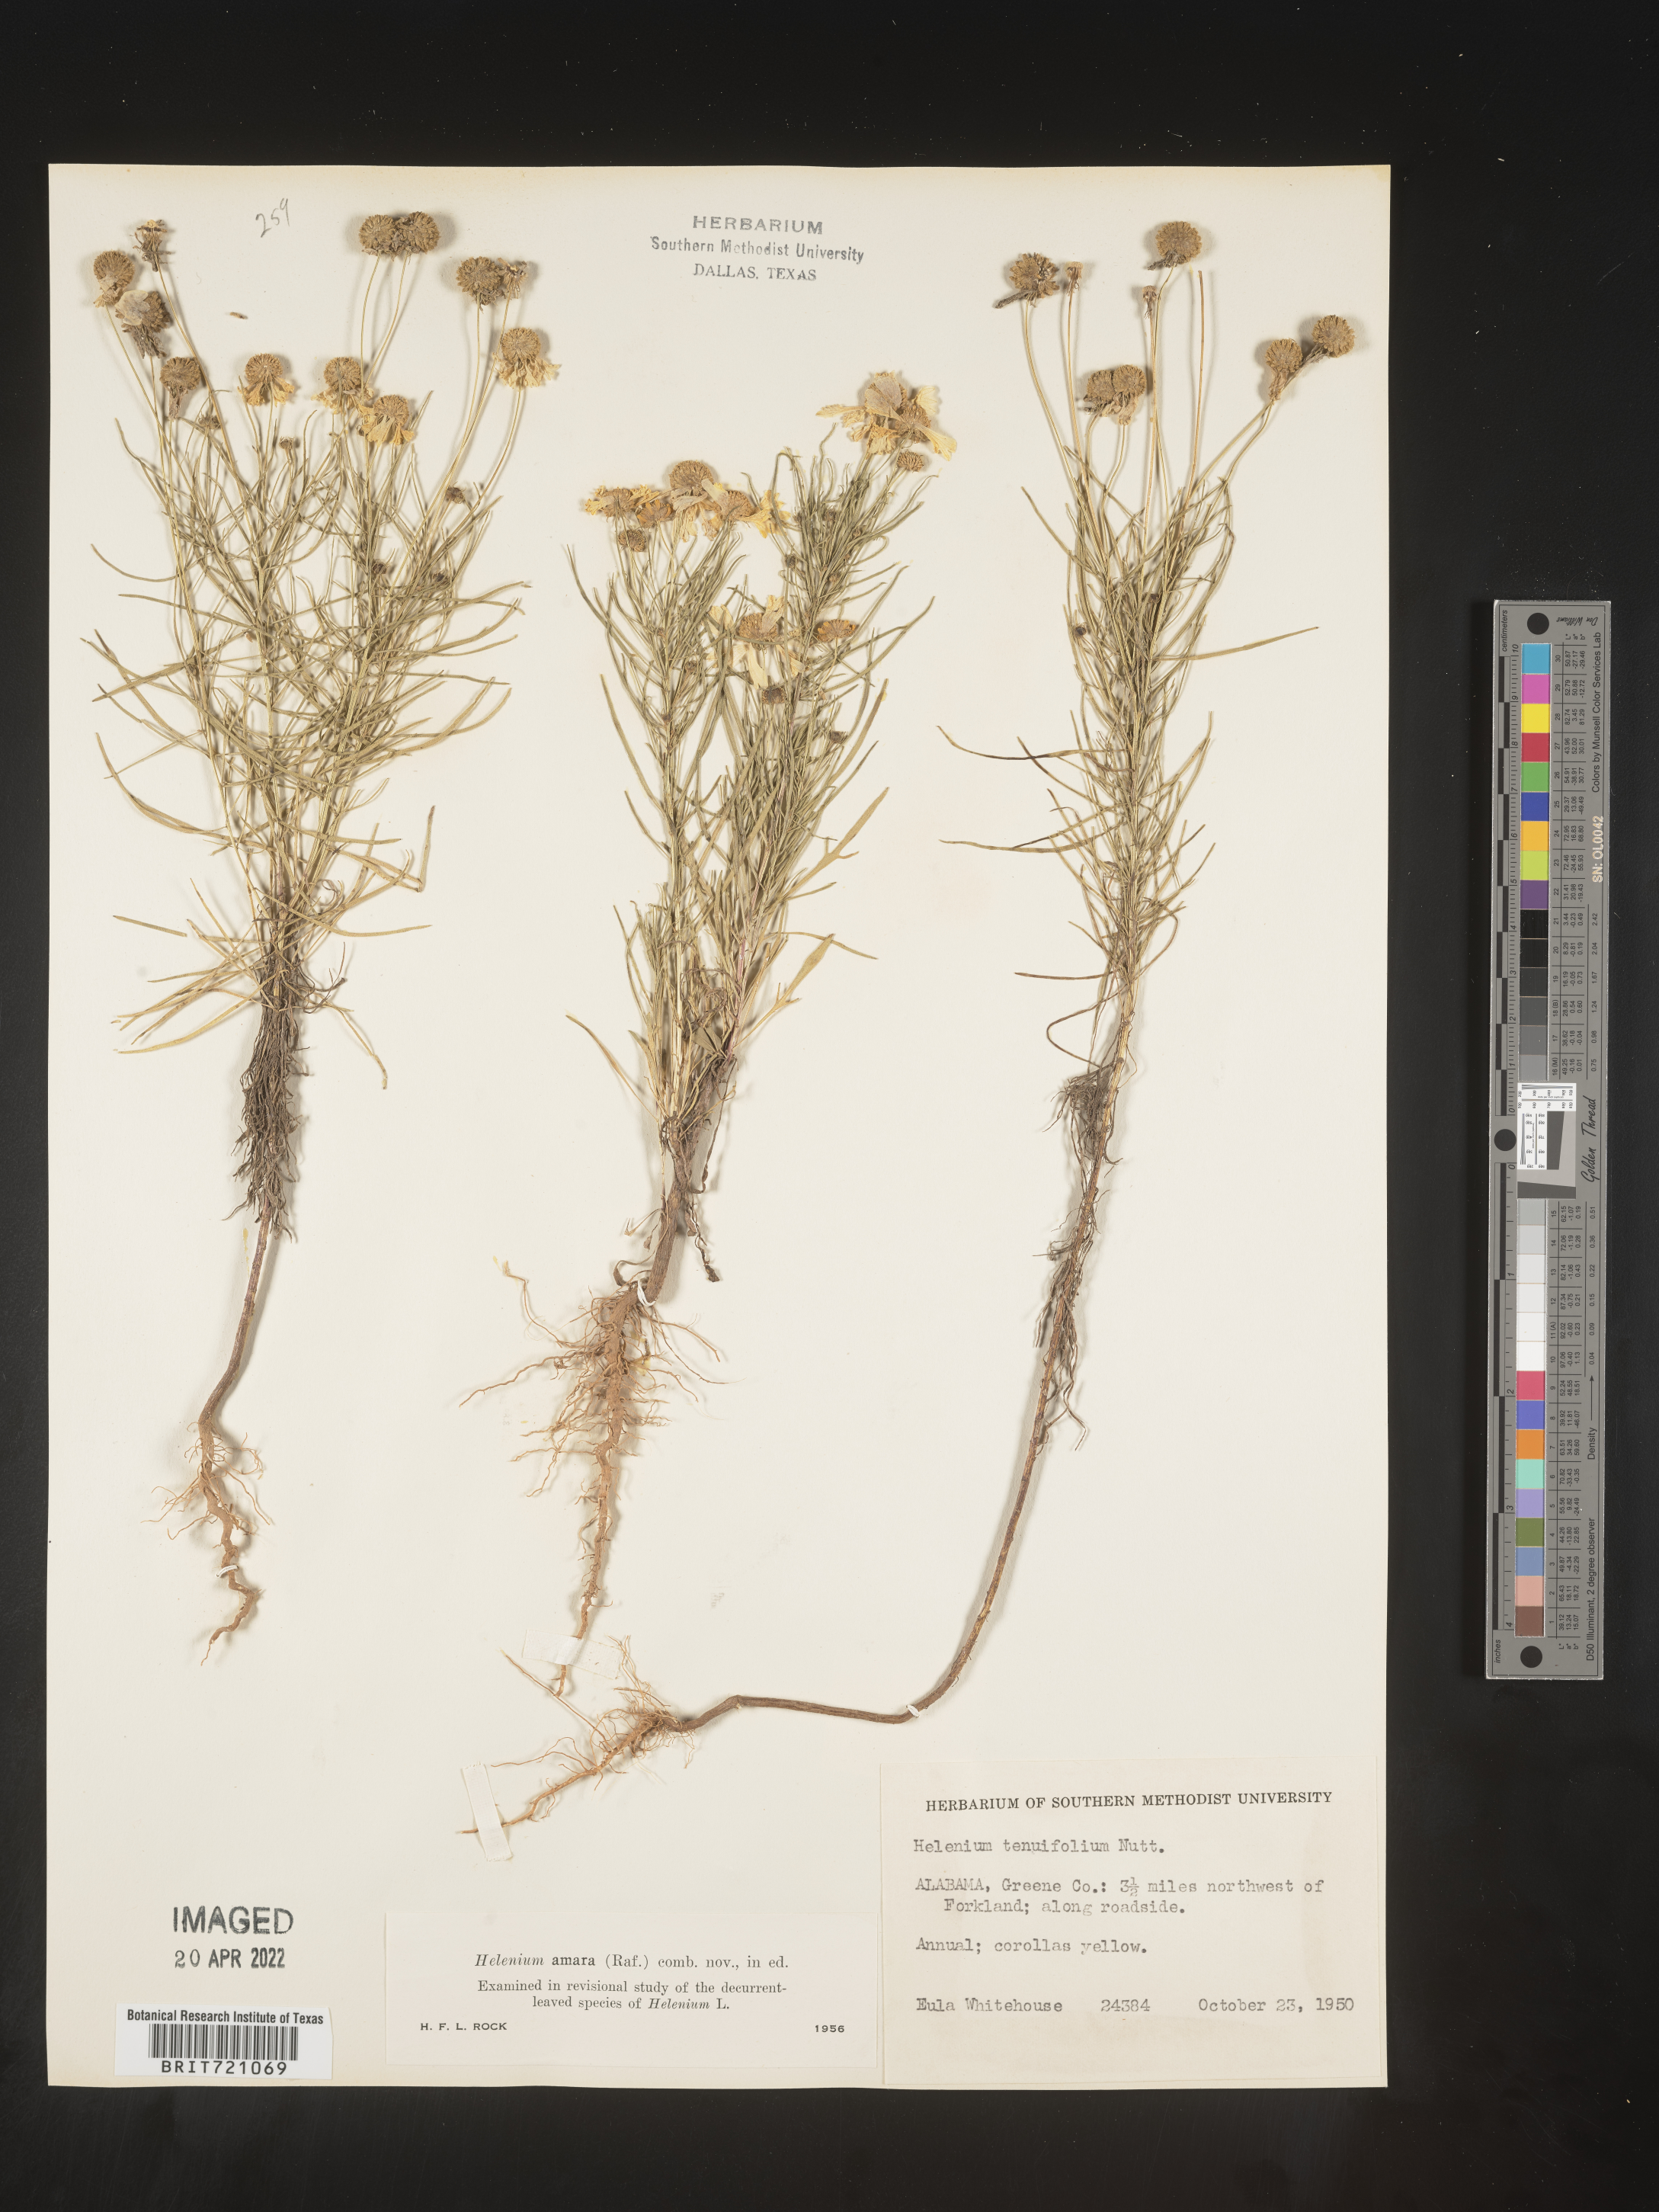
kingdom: Plantae
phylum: Tracheophyta
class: Magnoliopsida
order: Asterales
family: Asteraceae
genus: Helenium
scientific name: Helenium amarum
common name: Bitter sneezeweed
